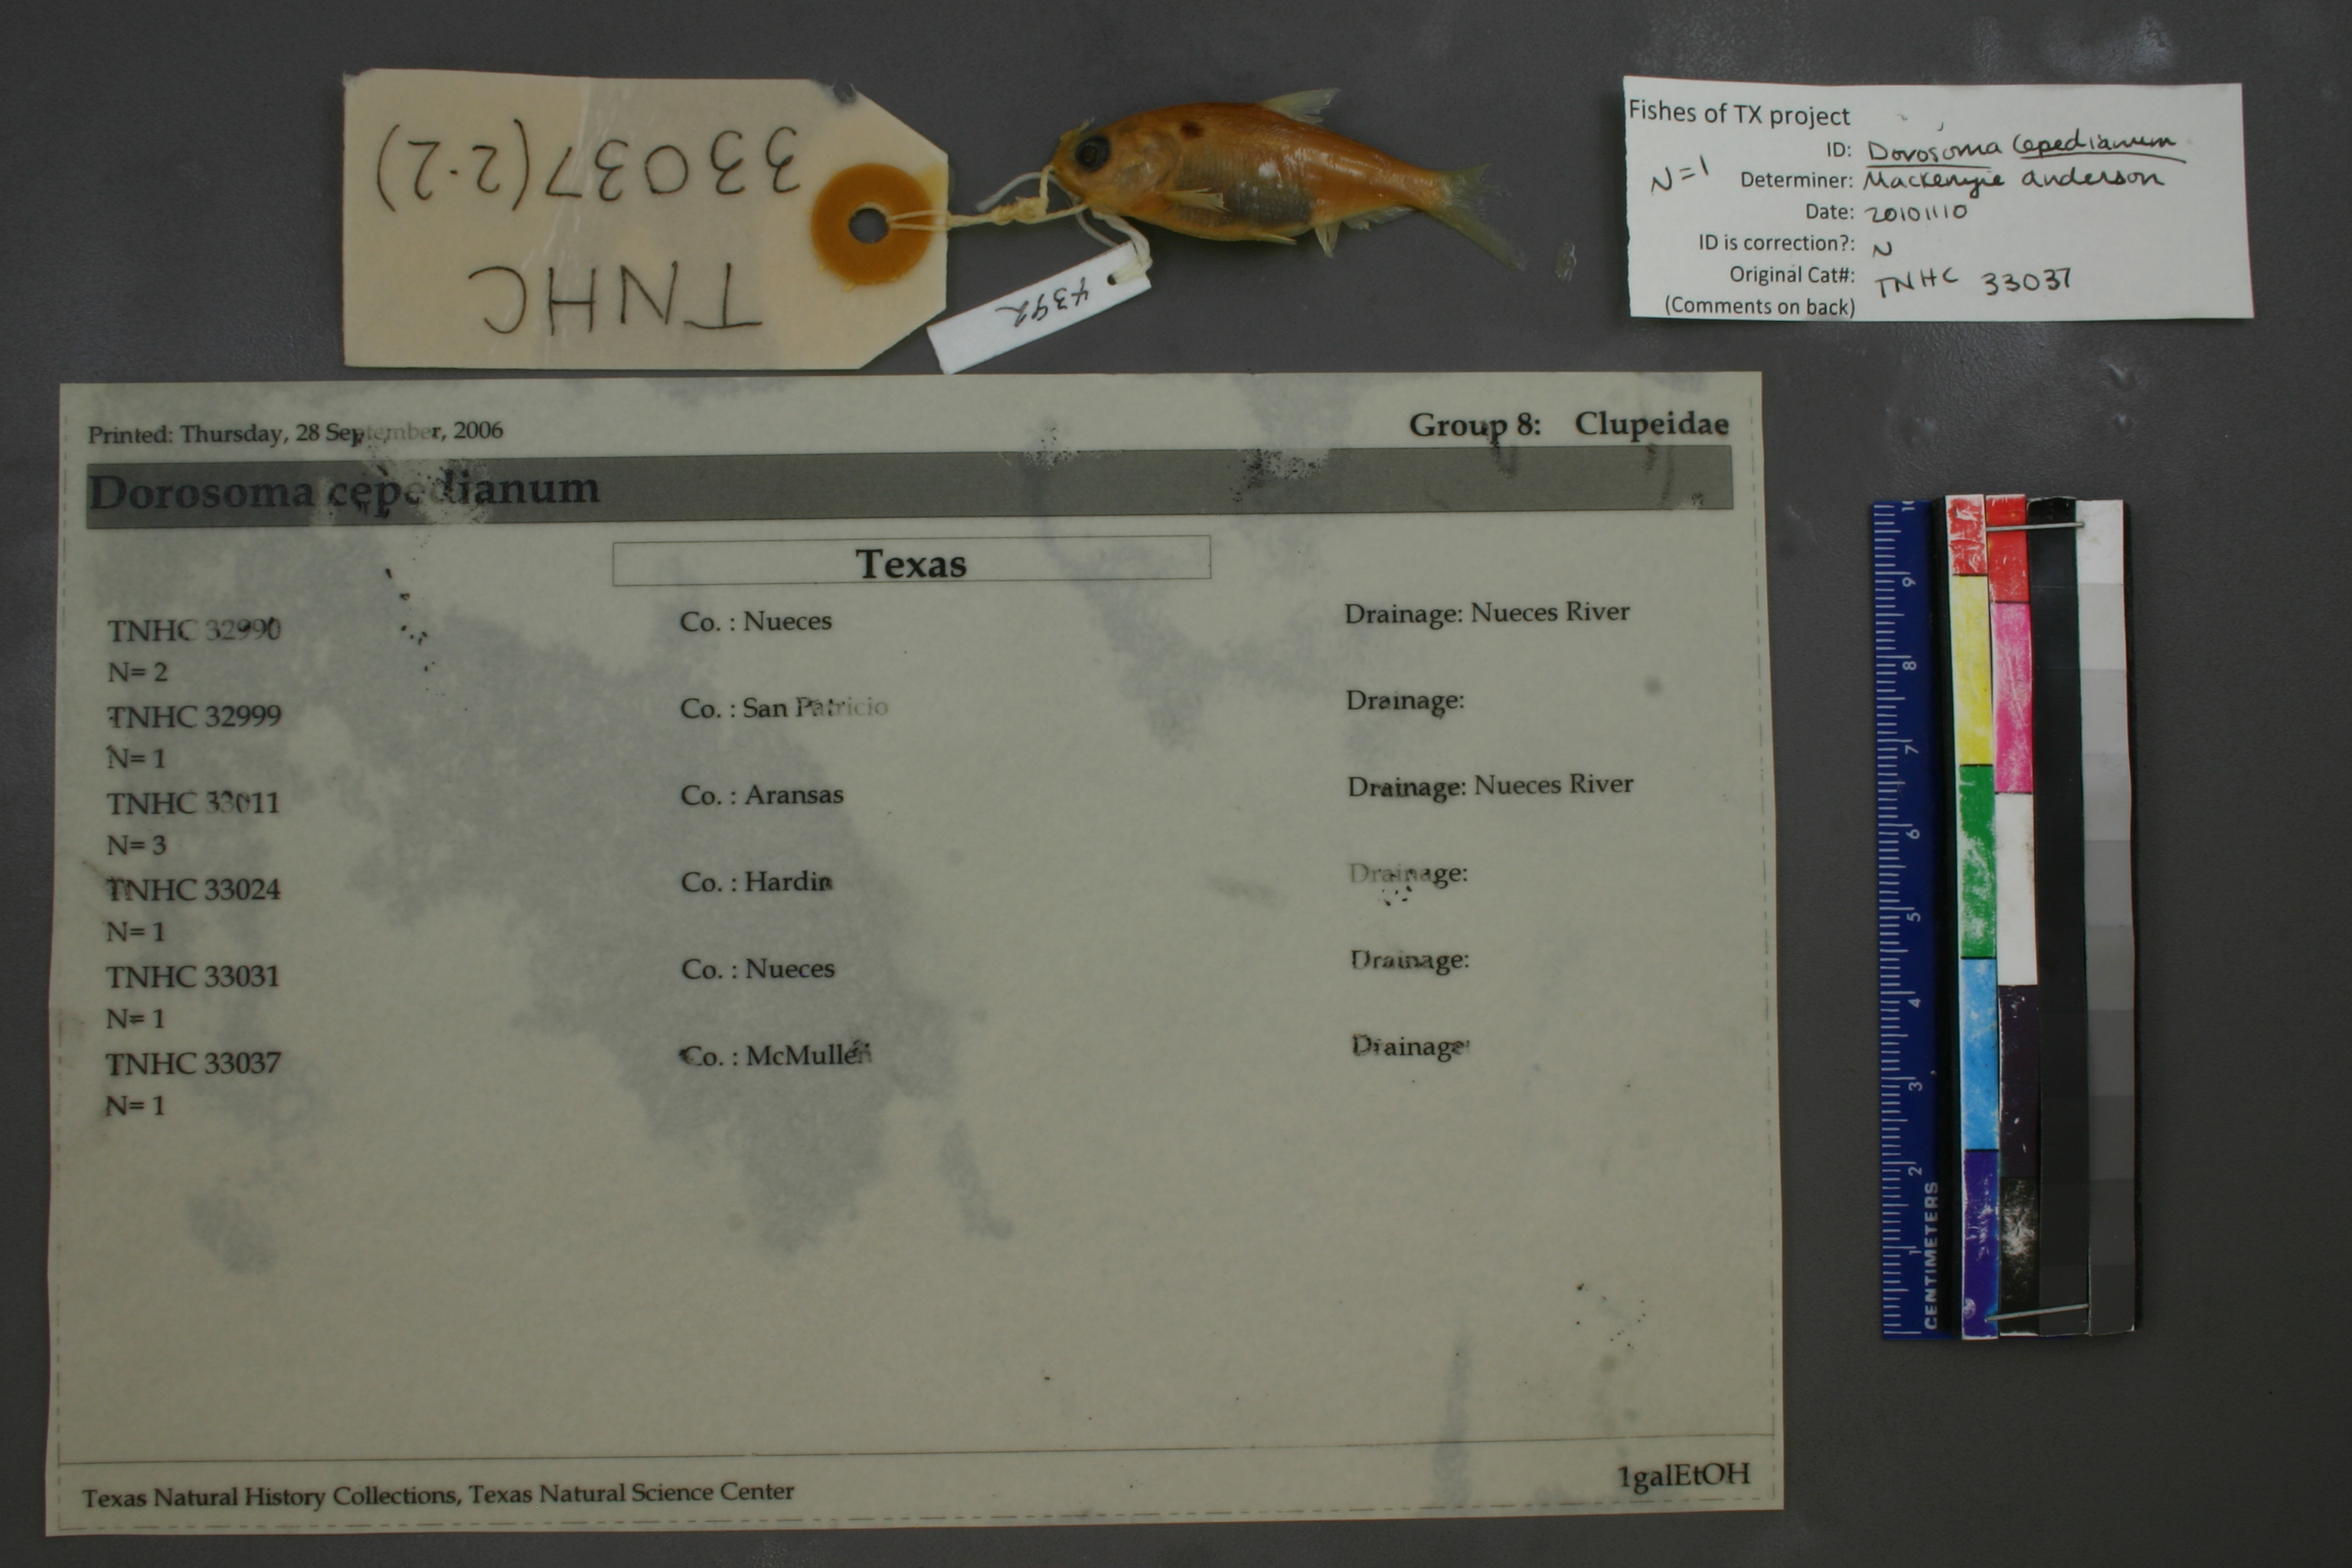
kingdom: Animalia
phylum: Chordata
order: Clupeiformes
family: Clupeidae
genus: Dorosoma
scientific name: Dorosoma cepedianum
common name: Gizzard shad
